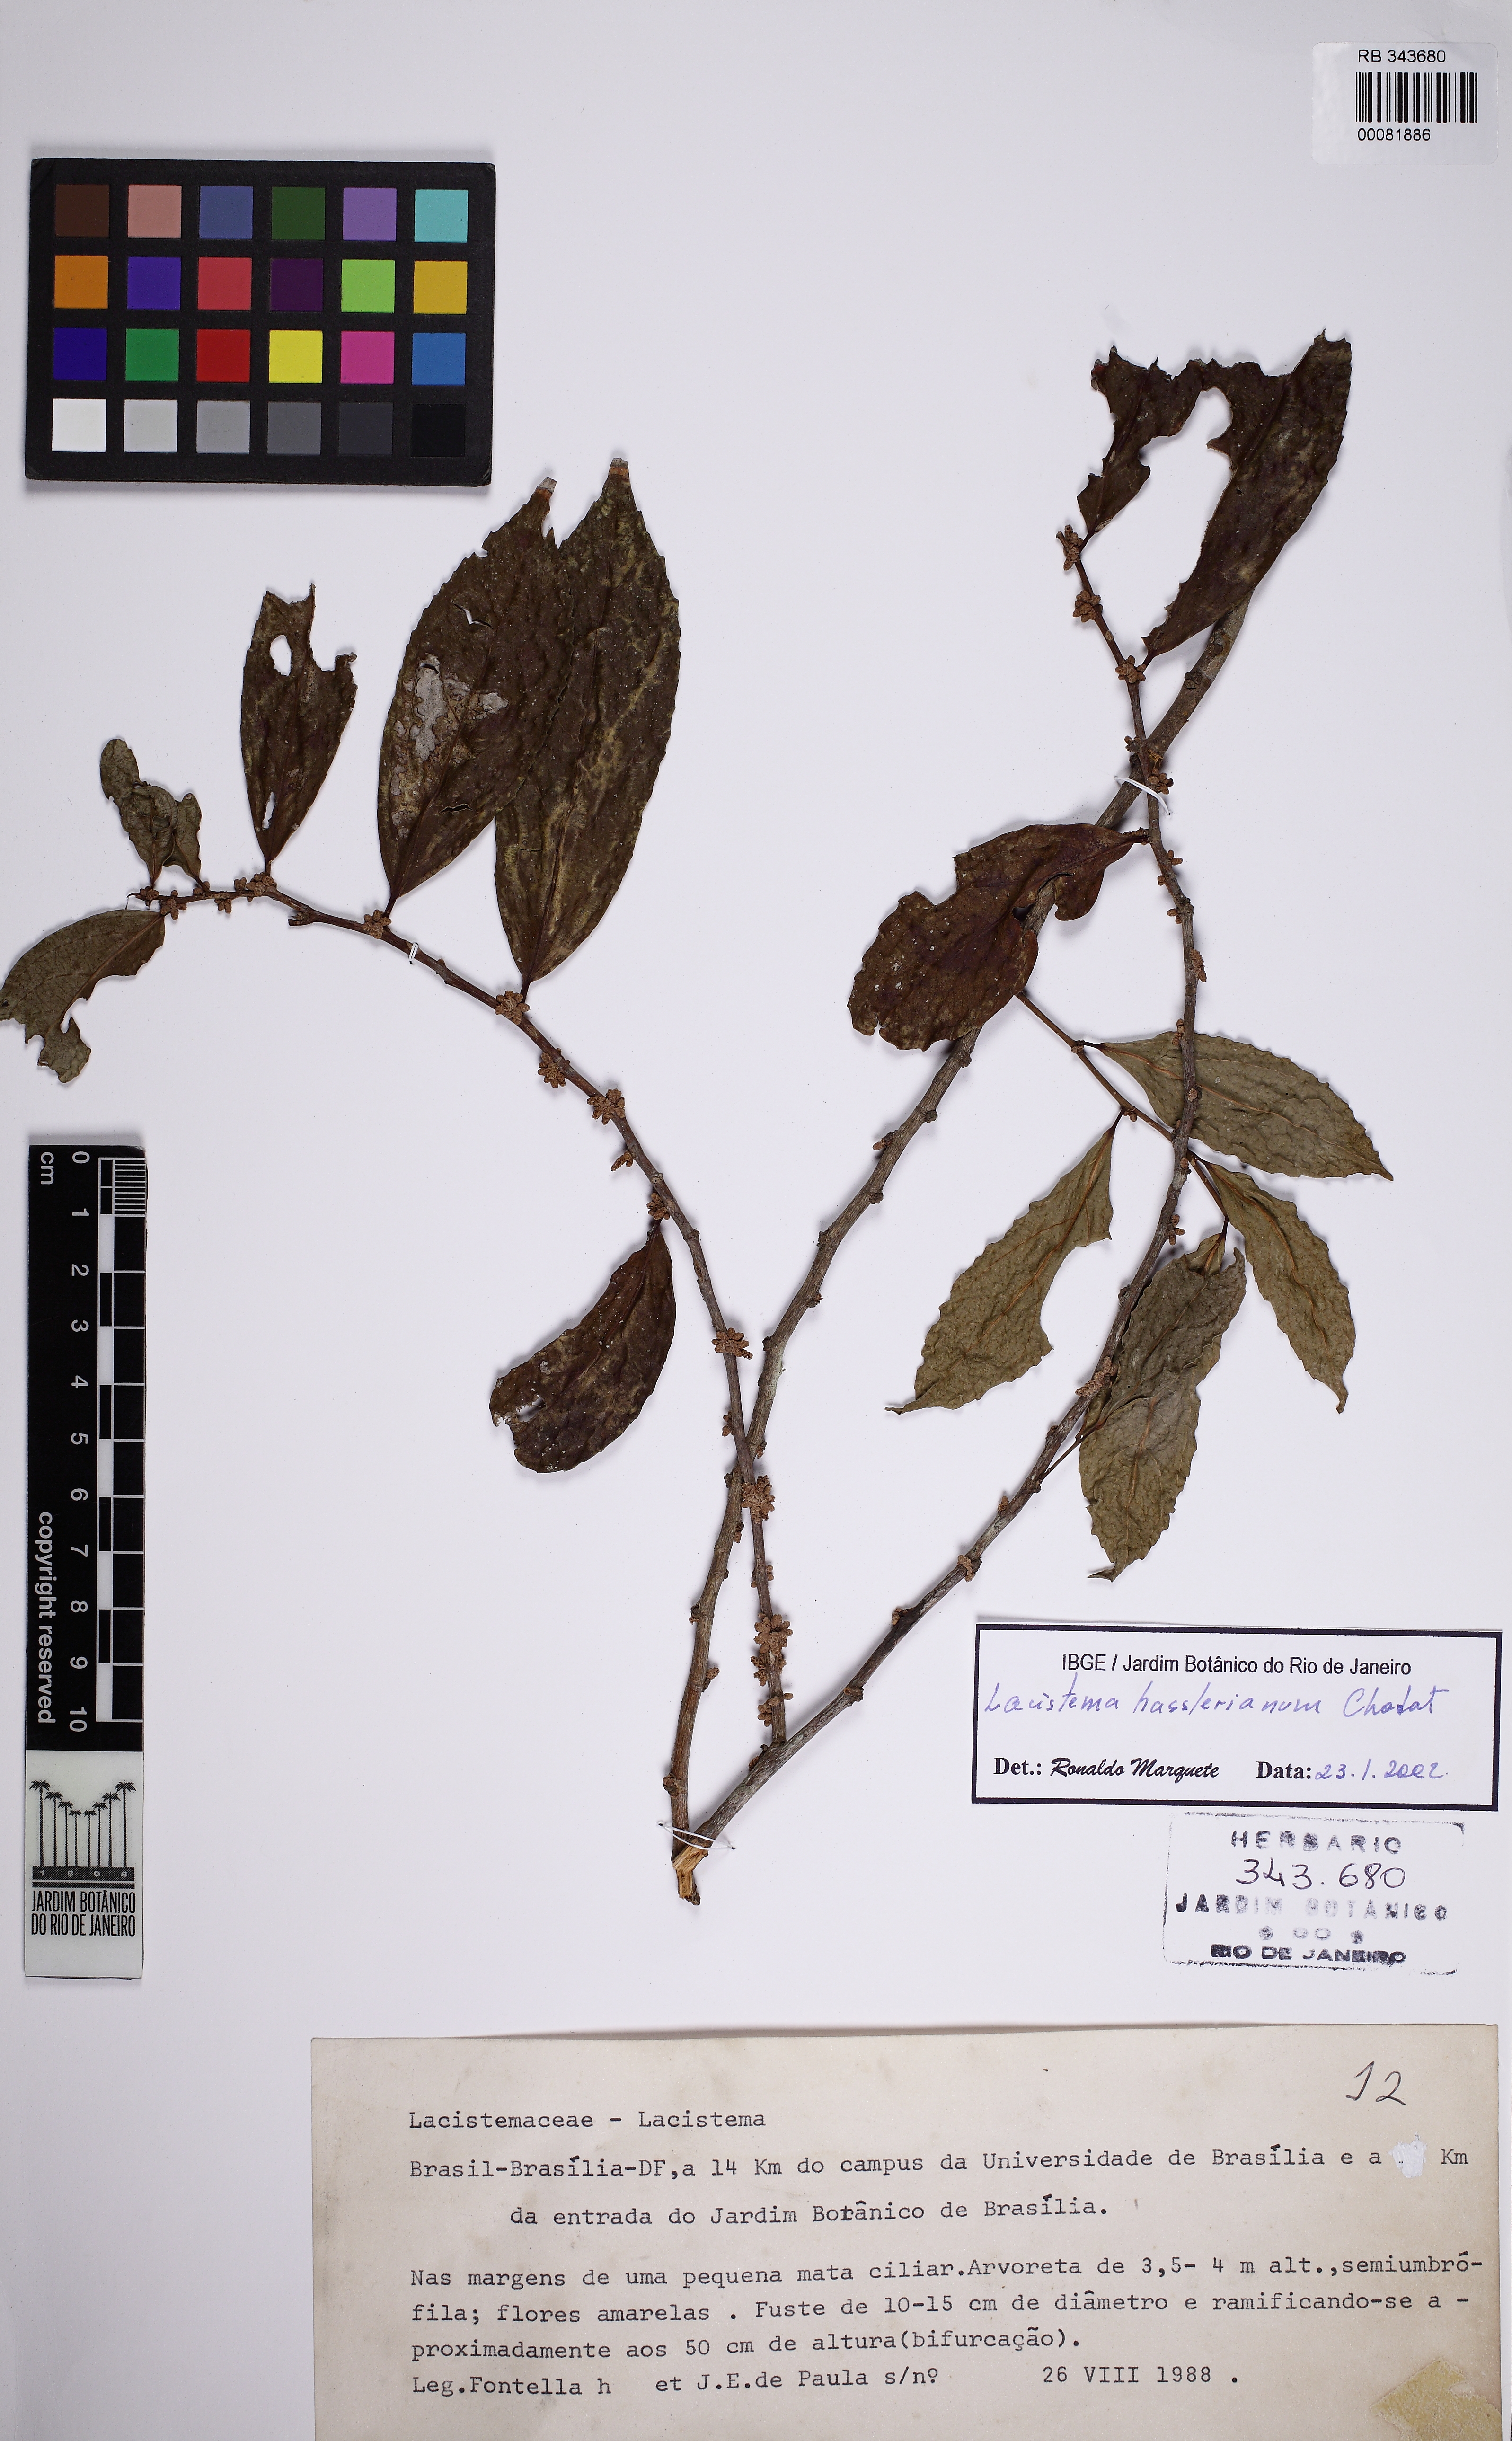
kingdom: Plantae
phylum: Tracheophyta
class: Magnoliopsida
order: Malpighiales
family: Lacistemataceae
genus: Lacistema
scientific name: Lacistema hasslerianum
